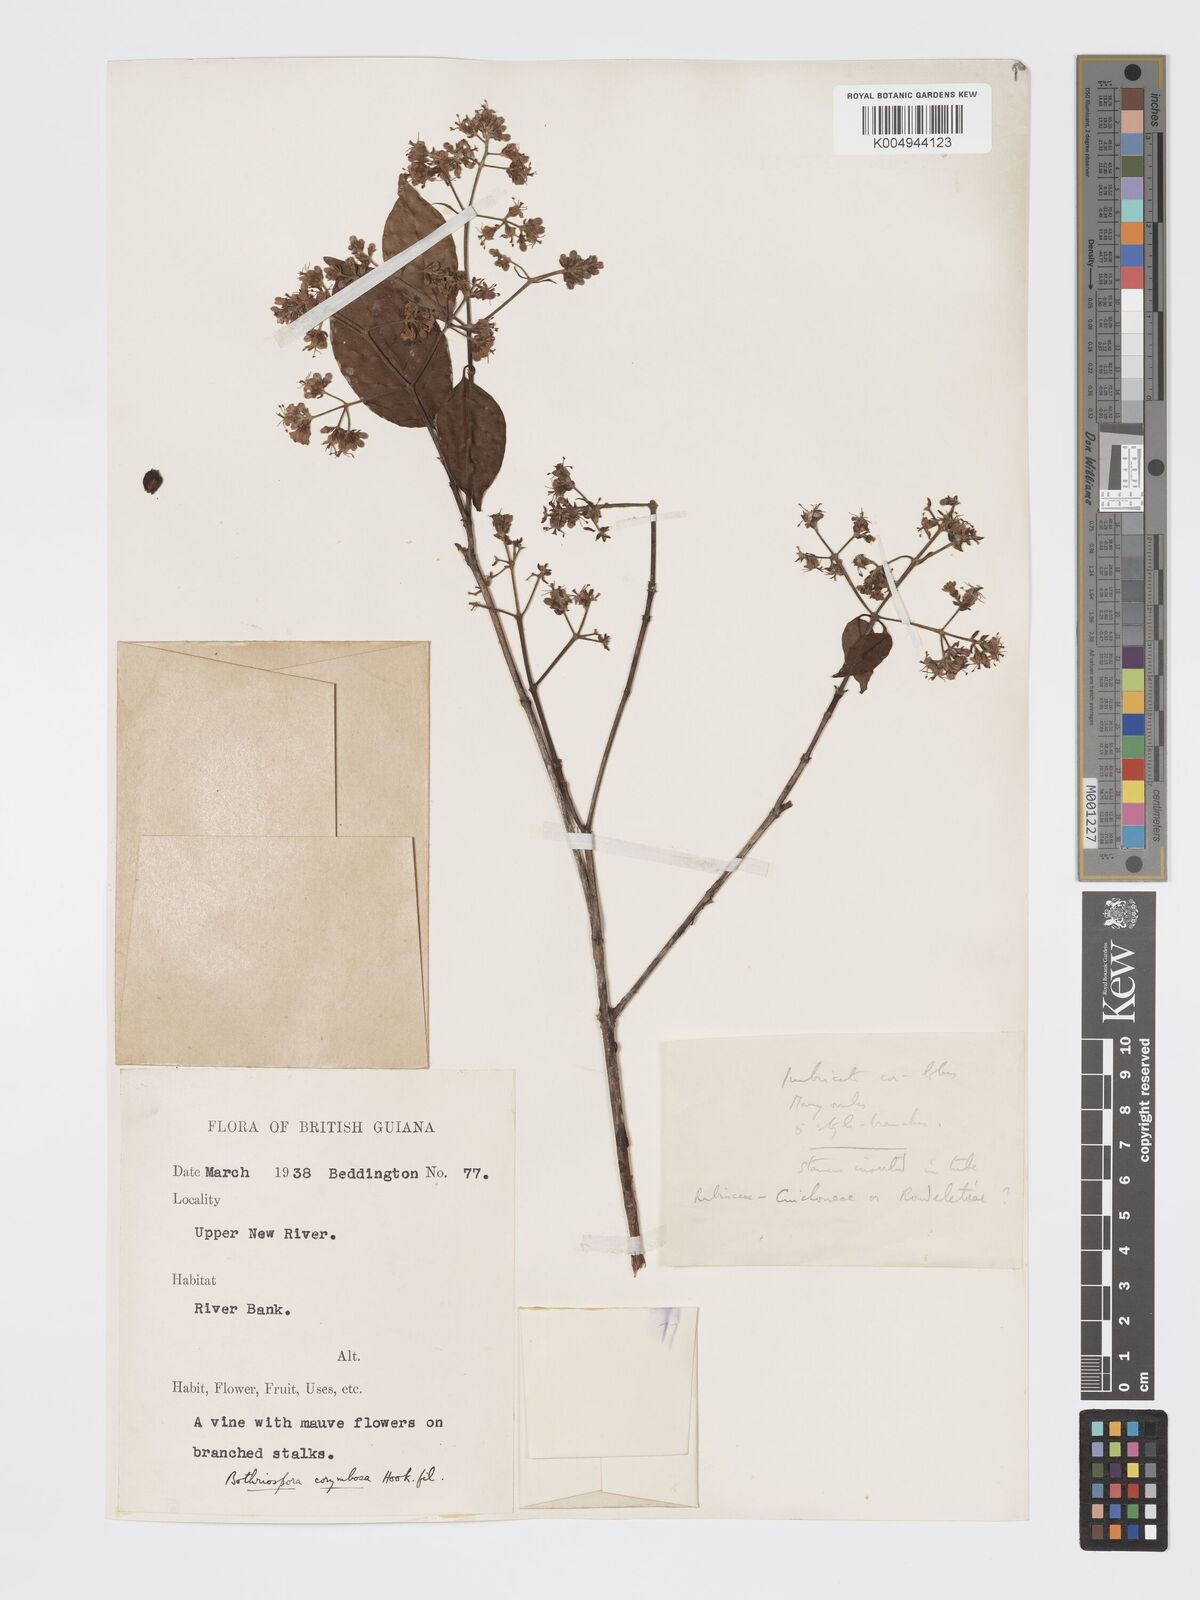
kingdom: Plantae
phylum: Tracheophyta
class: Magnoliopsida
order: Gentianales
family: Rubiaceae
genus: Bothriospora
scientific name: Bothriospora corymbosa
